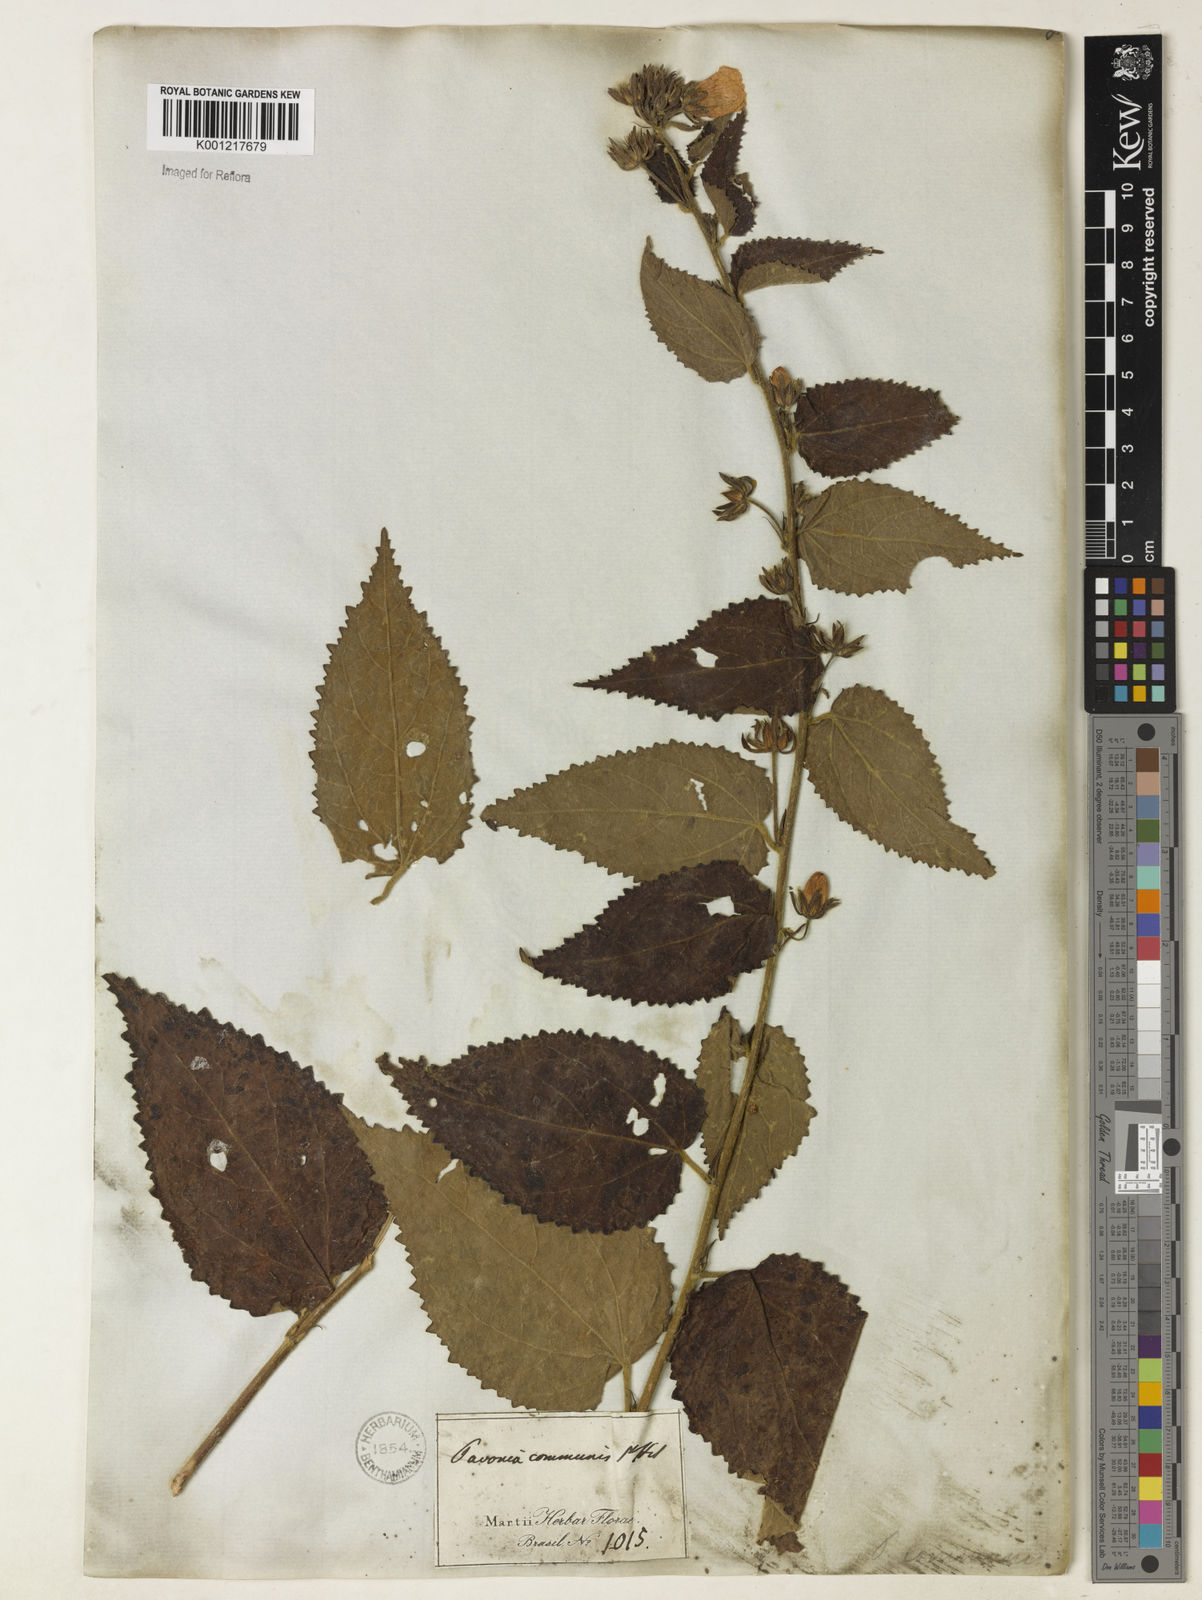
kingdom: Plantae
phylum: Tracheophyta
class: Magnoliopsida
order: Malvales
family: Malvaceae
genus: Pavonia
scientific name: Pavonia communis
